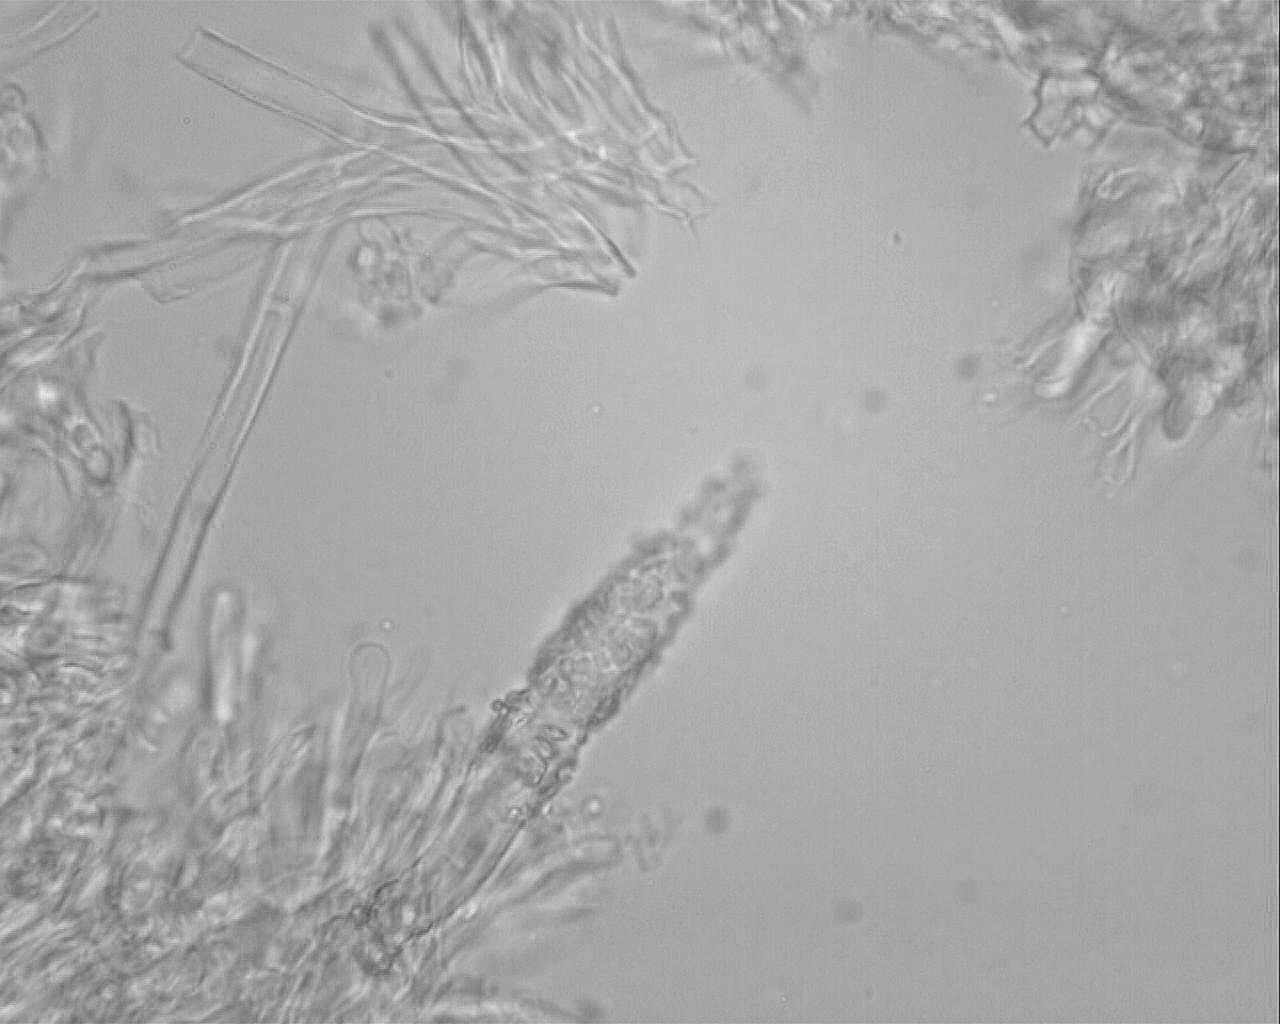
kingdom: Fungi
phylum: Basidiomycota
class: Agaricomycetes
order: Polyporales
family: Phanerochaetaceae
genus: Phlebiopsis
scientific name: Phlebiopsis gigantea
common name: kæmpebarksvamp
